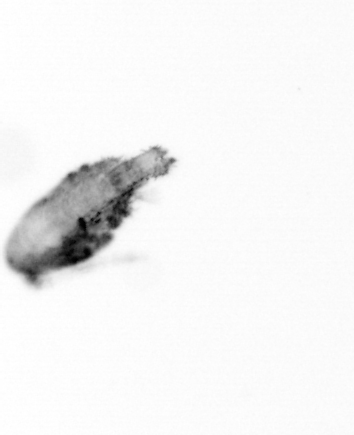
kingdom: Animalia
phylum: Arthropoda
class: Copepoda
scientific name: Copepoda
